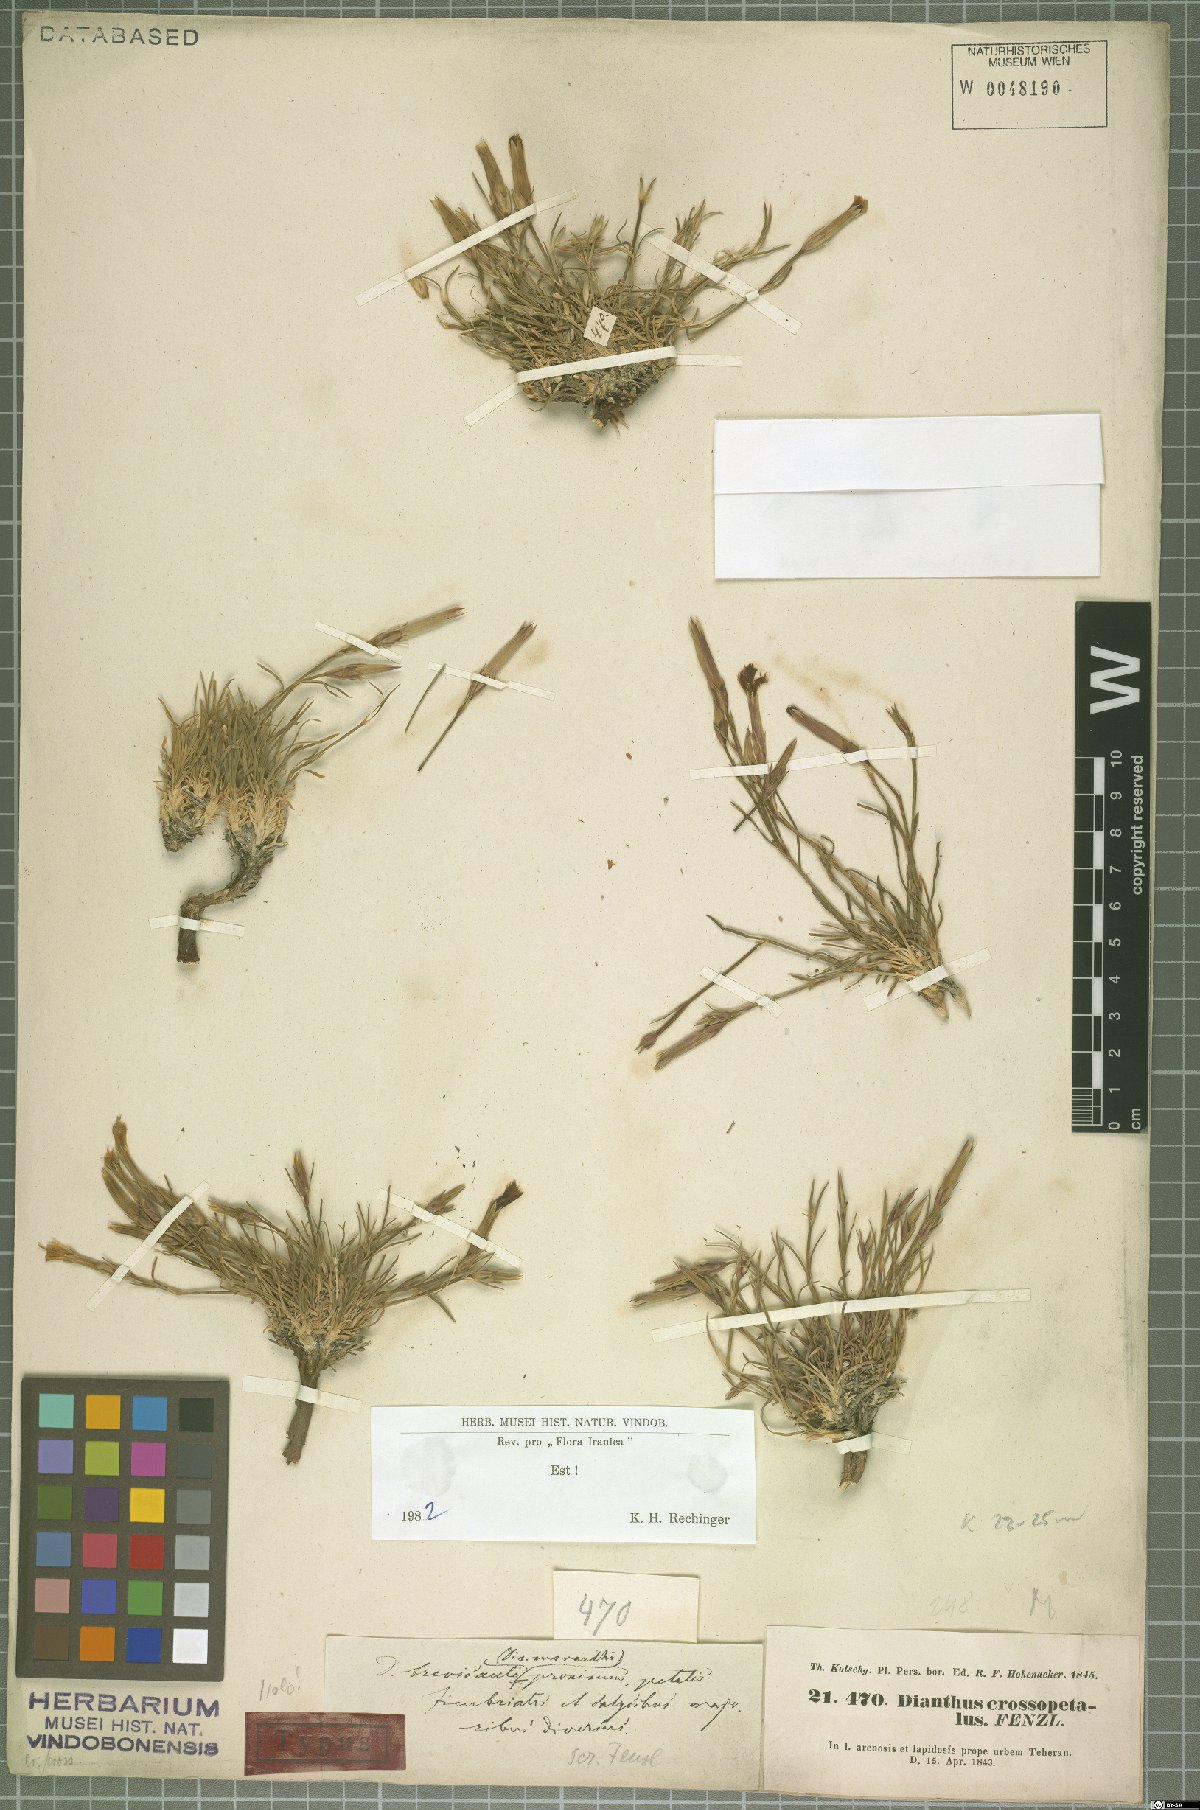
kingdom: Plantae
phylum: Tracheophyta
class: Magnoliopsida
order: Caryophyllales
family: Caryophyllaceae
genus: Dianthus
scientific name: Dianthus crossopetalus
